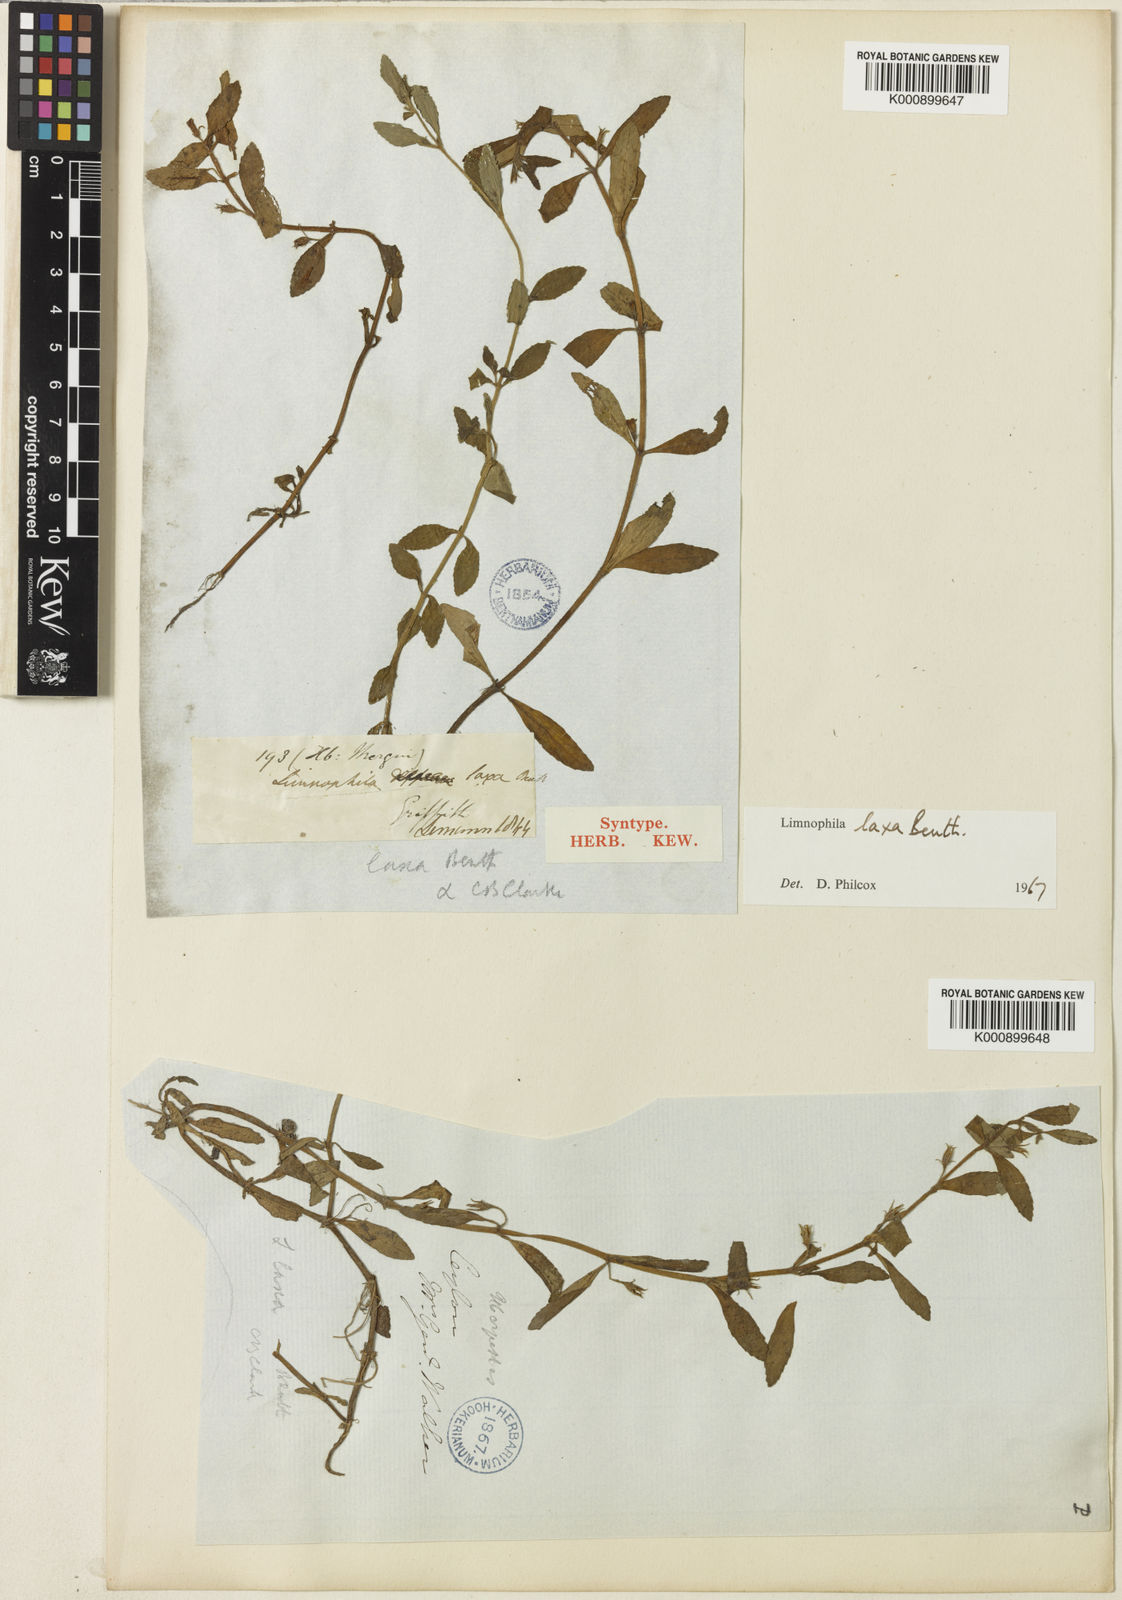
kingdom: Plantae
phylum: Tracheophyta
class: Magnoliopsida
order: Lamiales
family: Plantaginaceae
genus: Limnophila
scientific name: Limnophila laxa
